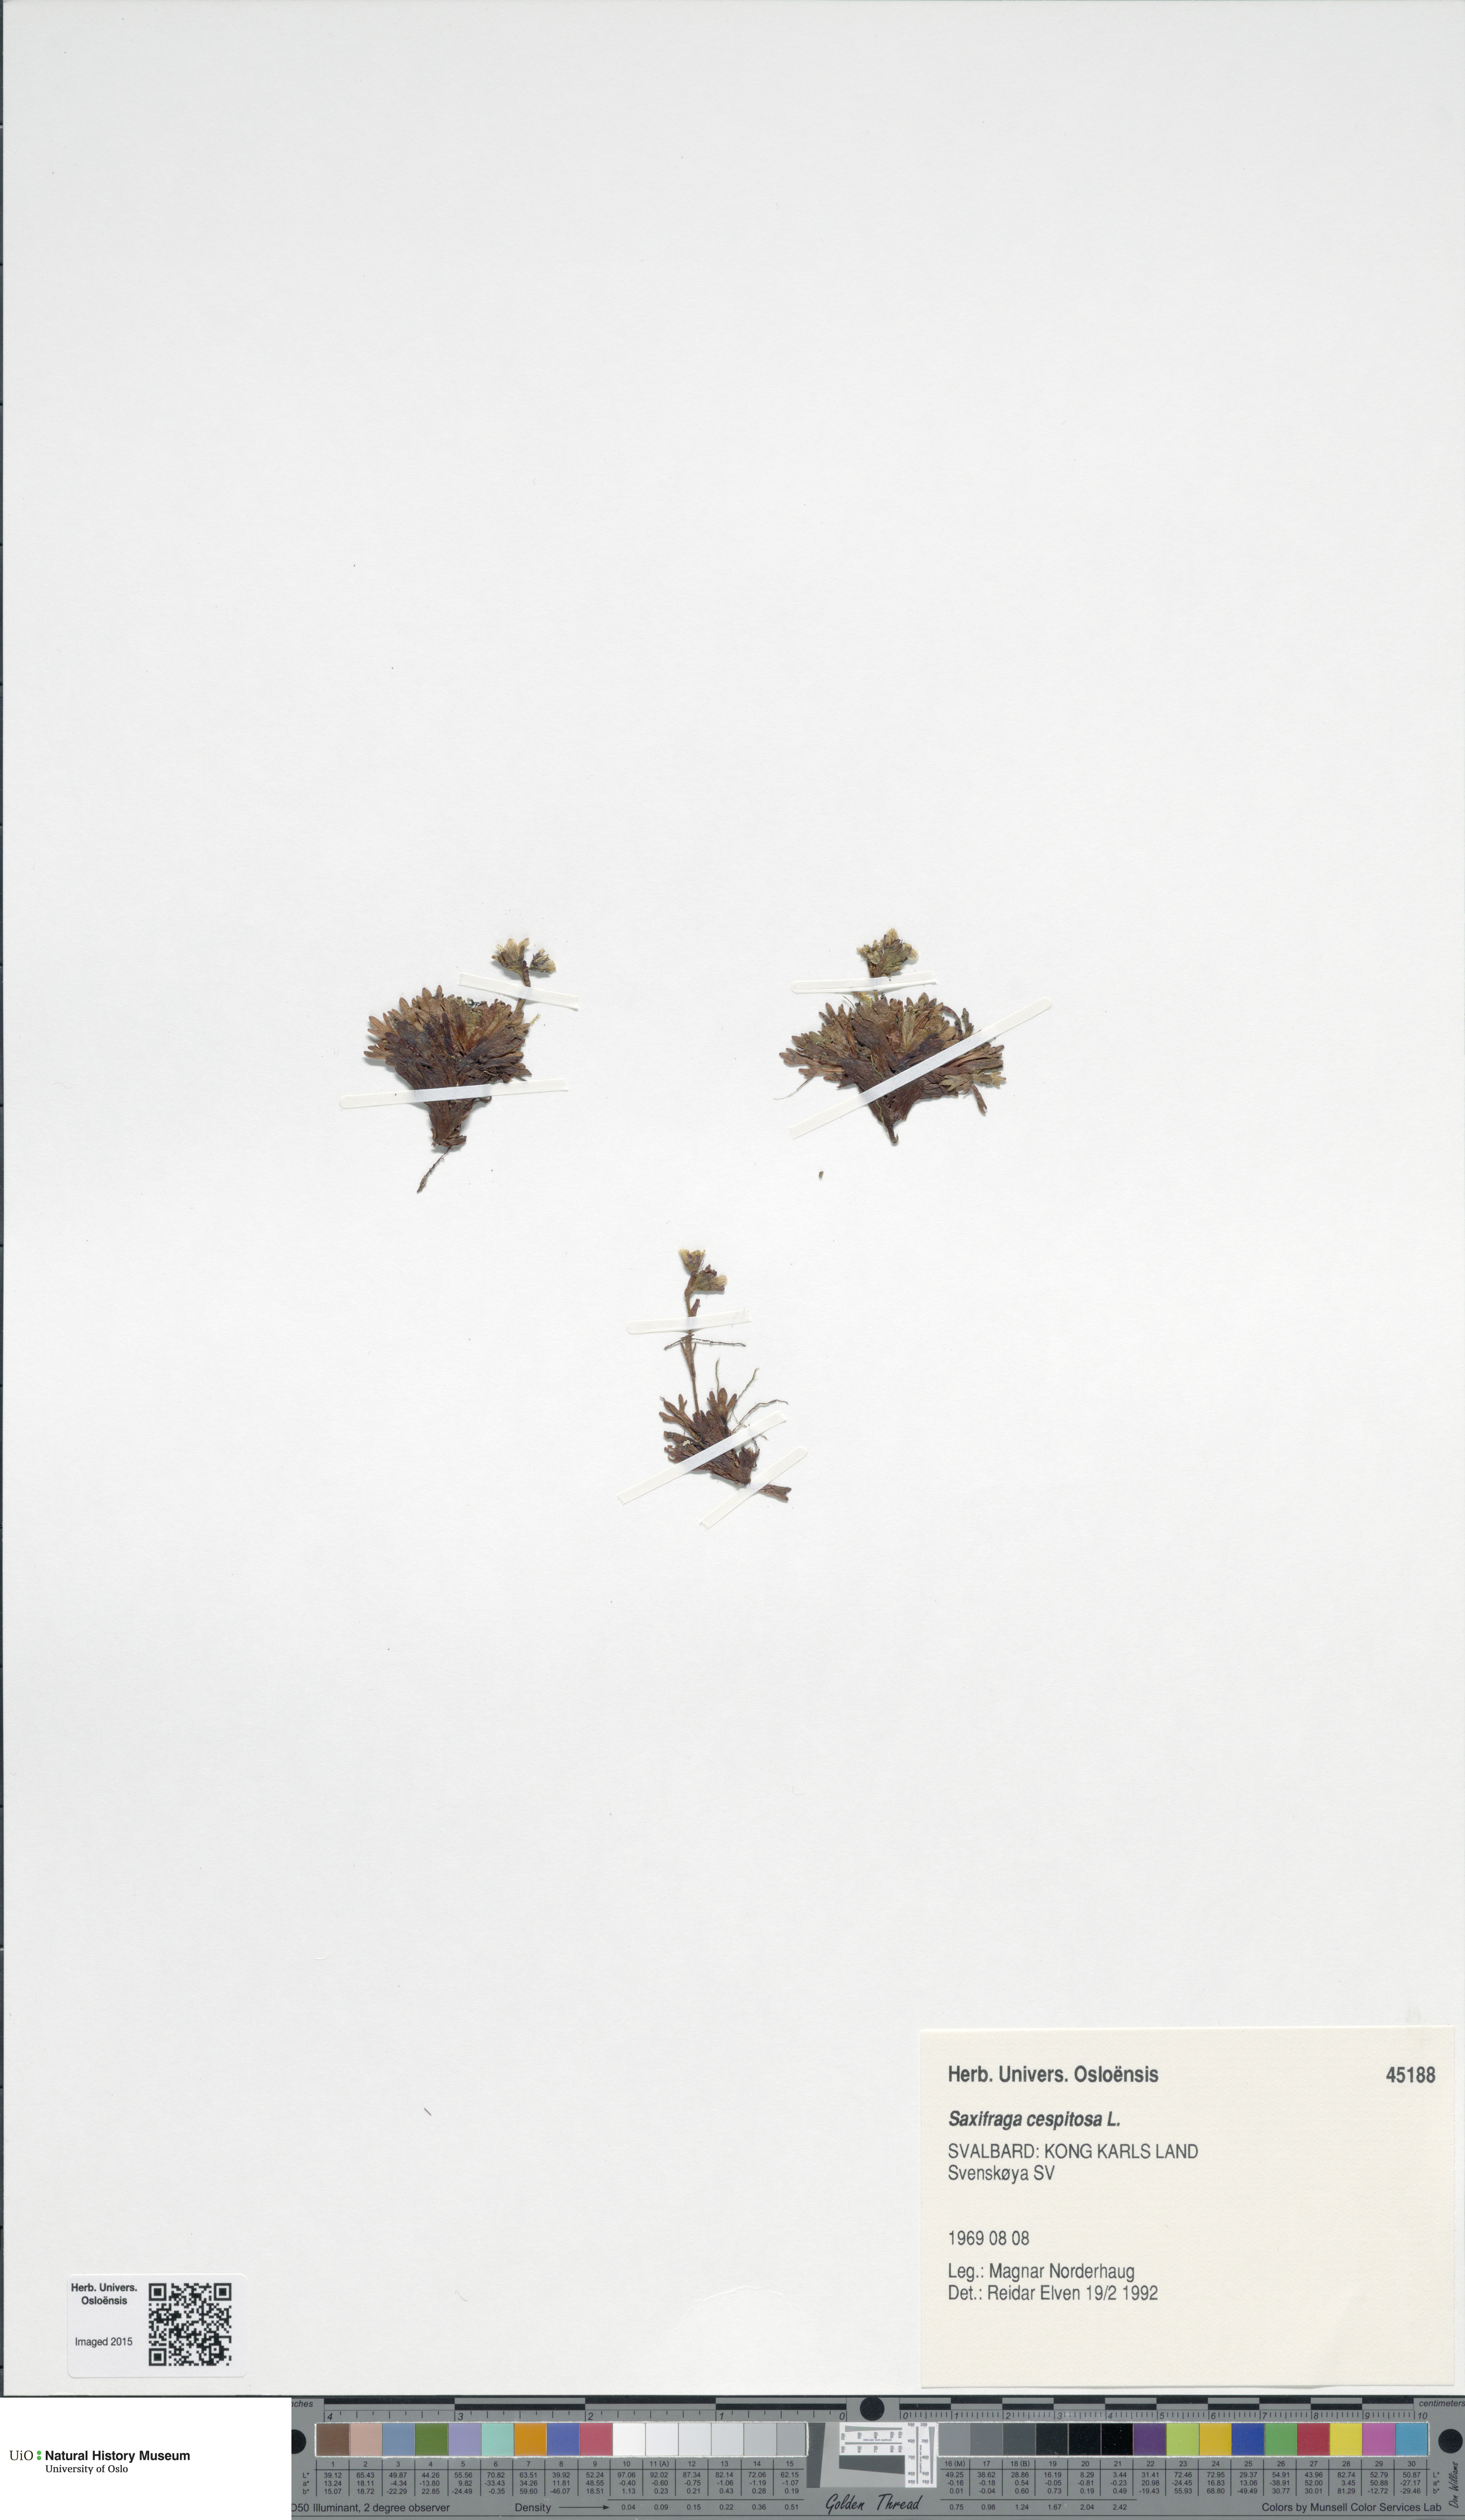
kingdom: Plantae
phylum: Tracheophyta
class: Magnoliopsida
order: Saxifragales
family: Saxifragaceae
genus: Saxifraga
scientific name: Saxifraga cespitosa
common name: Tufted saxifrage
